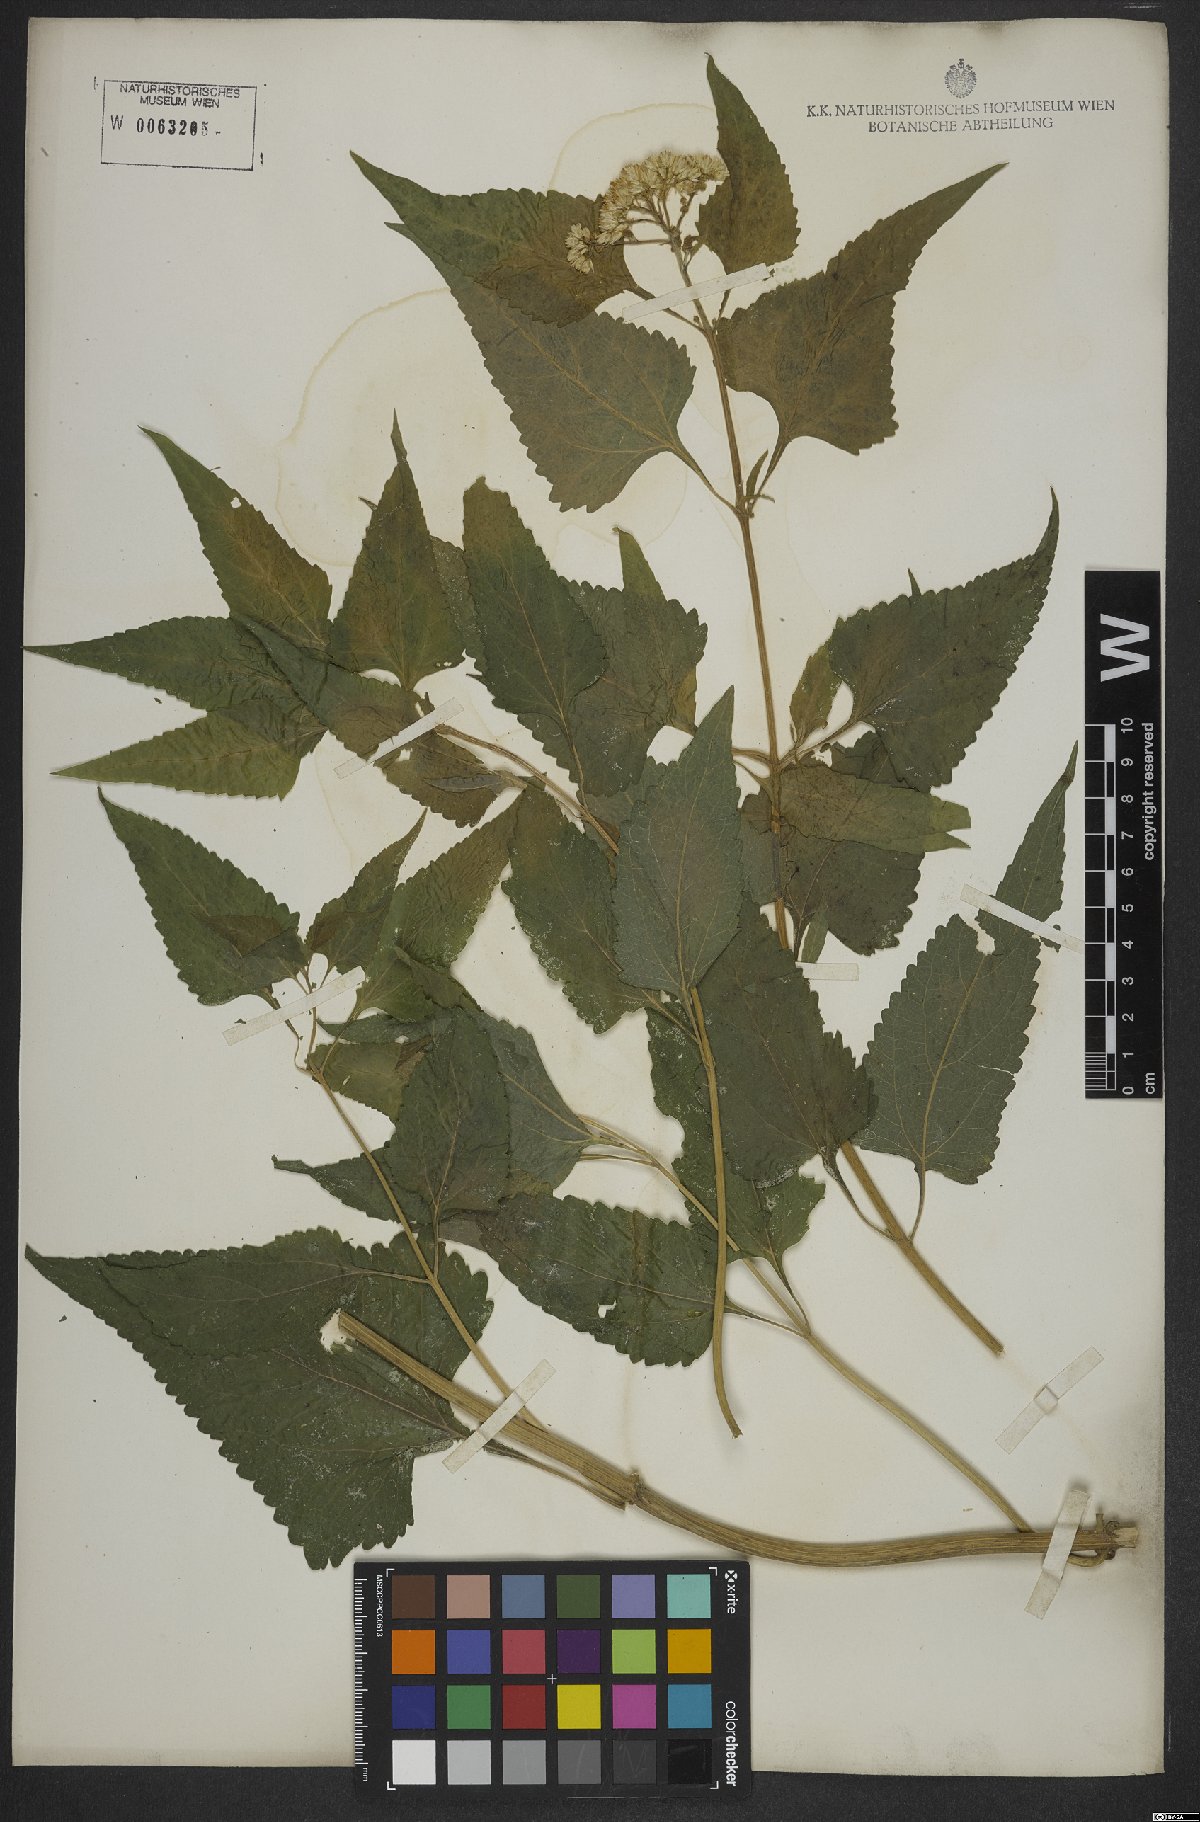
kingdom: Plantae
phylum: Tracheophyta
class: Magnoliopsida
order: Asterales
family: Asteraceae
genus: Austroeupatorium
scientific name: Austroeupatorium inulifolium
